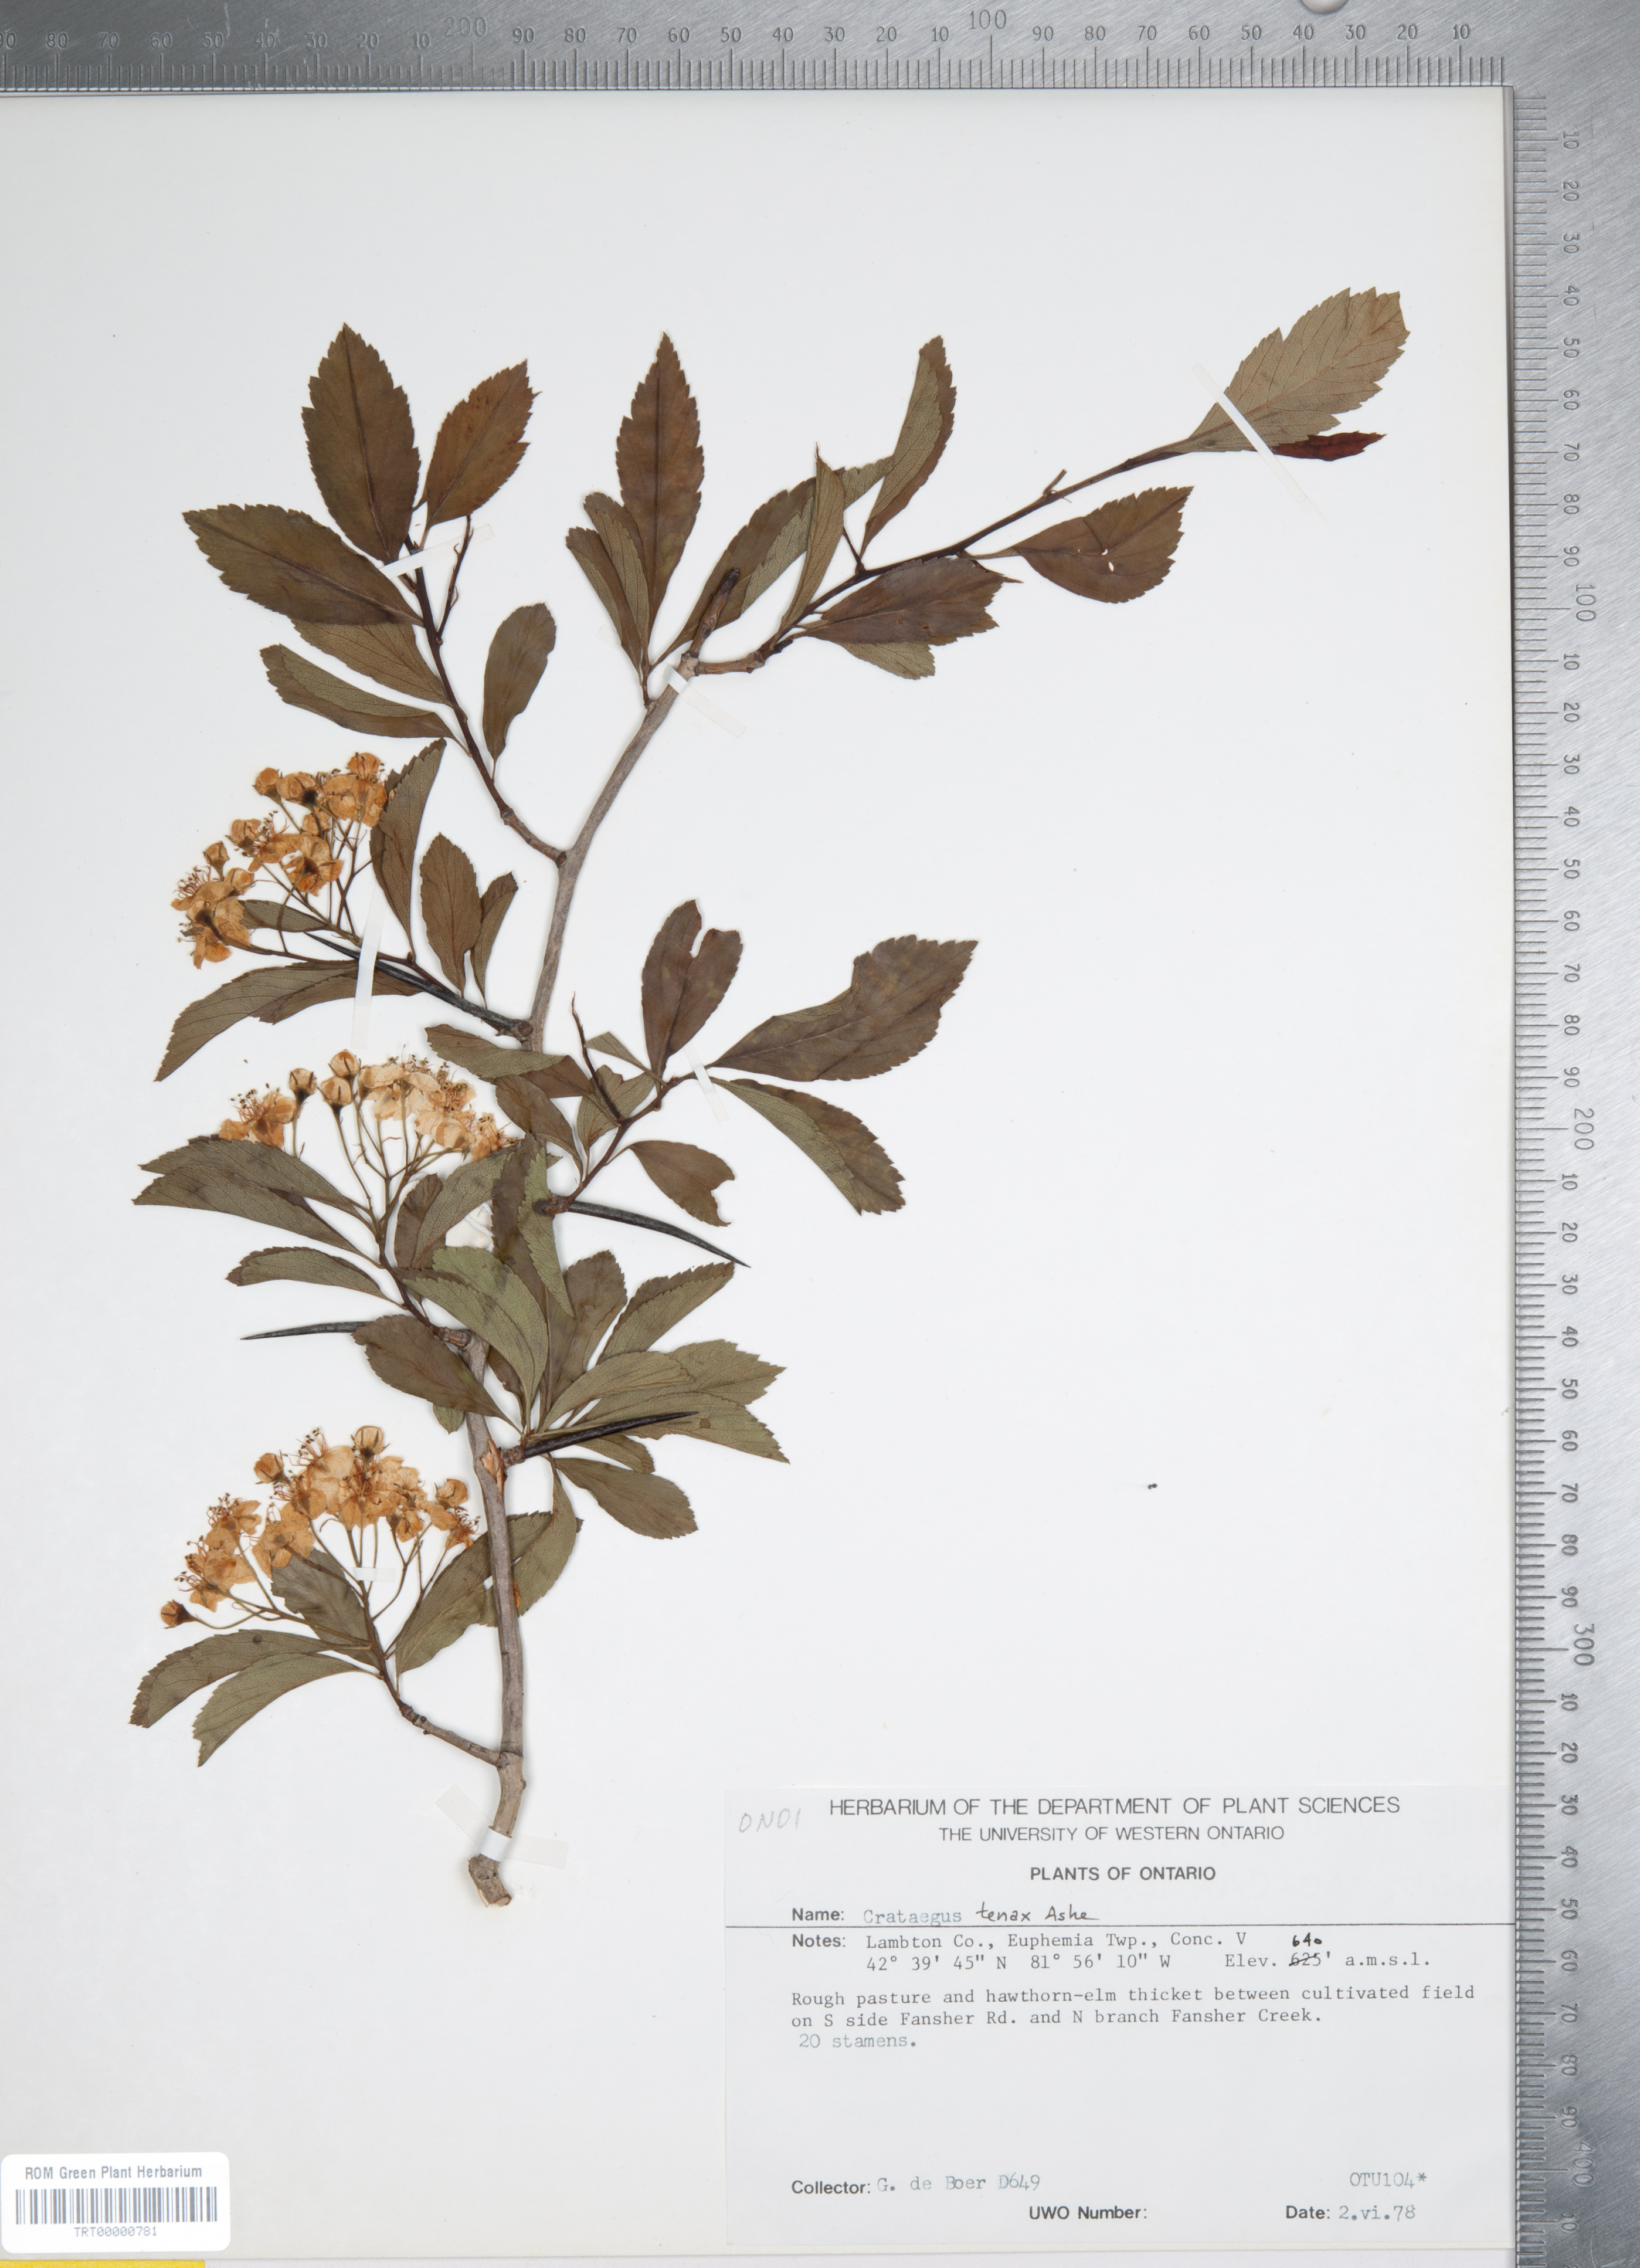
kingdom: Plantae
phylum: Tracheophyta
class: Magnoliopsida
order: Rosales
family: Rosaceae
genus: Crataegus
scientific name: Crataegus crus-galli
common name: Cockspurthorn
